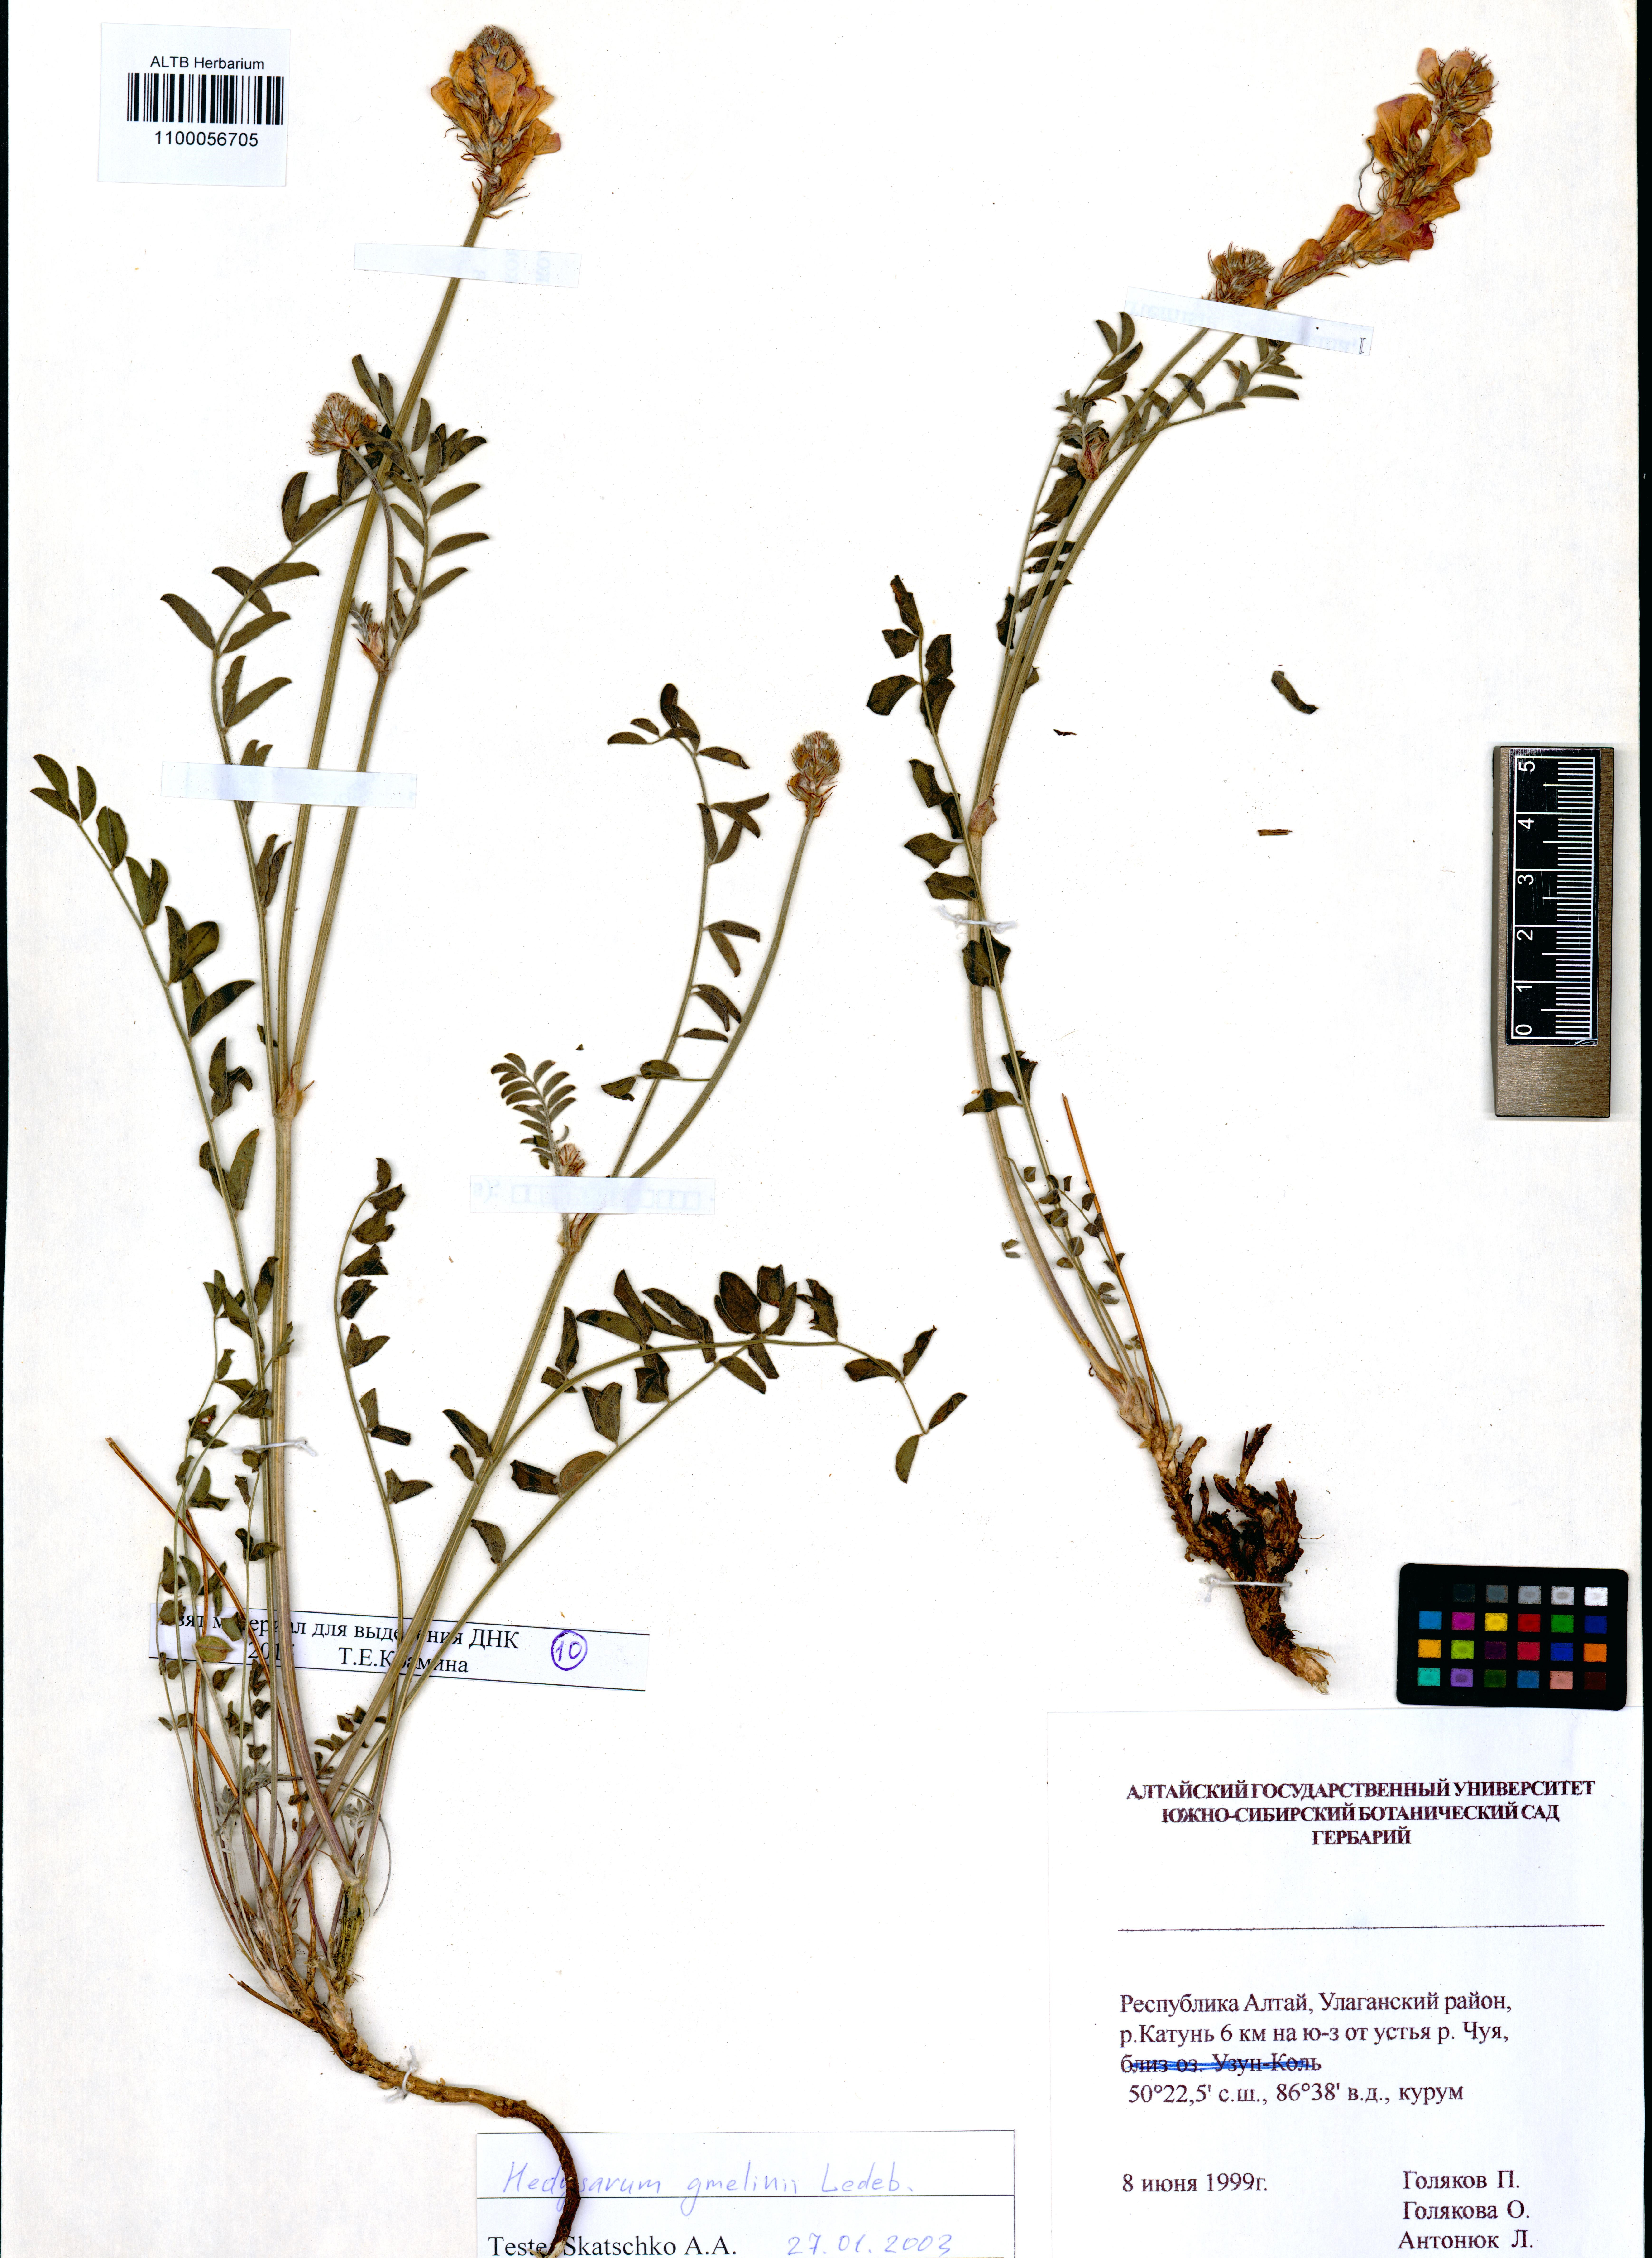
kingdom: Plantae
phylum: Tracheophyta
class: Magnoliopsida
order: Fabales
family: Fabaceae
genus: Hedysarum
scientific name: Hedysarum gmelinii
